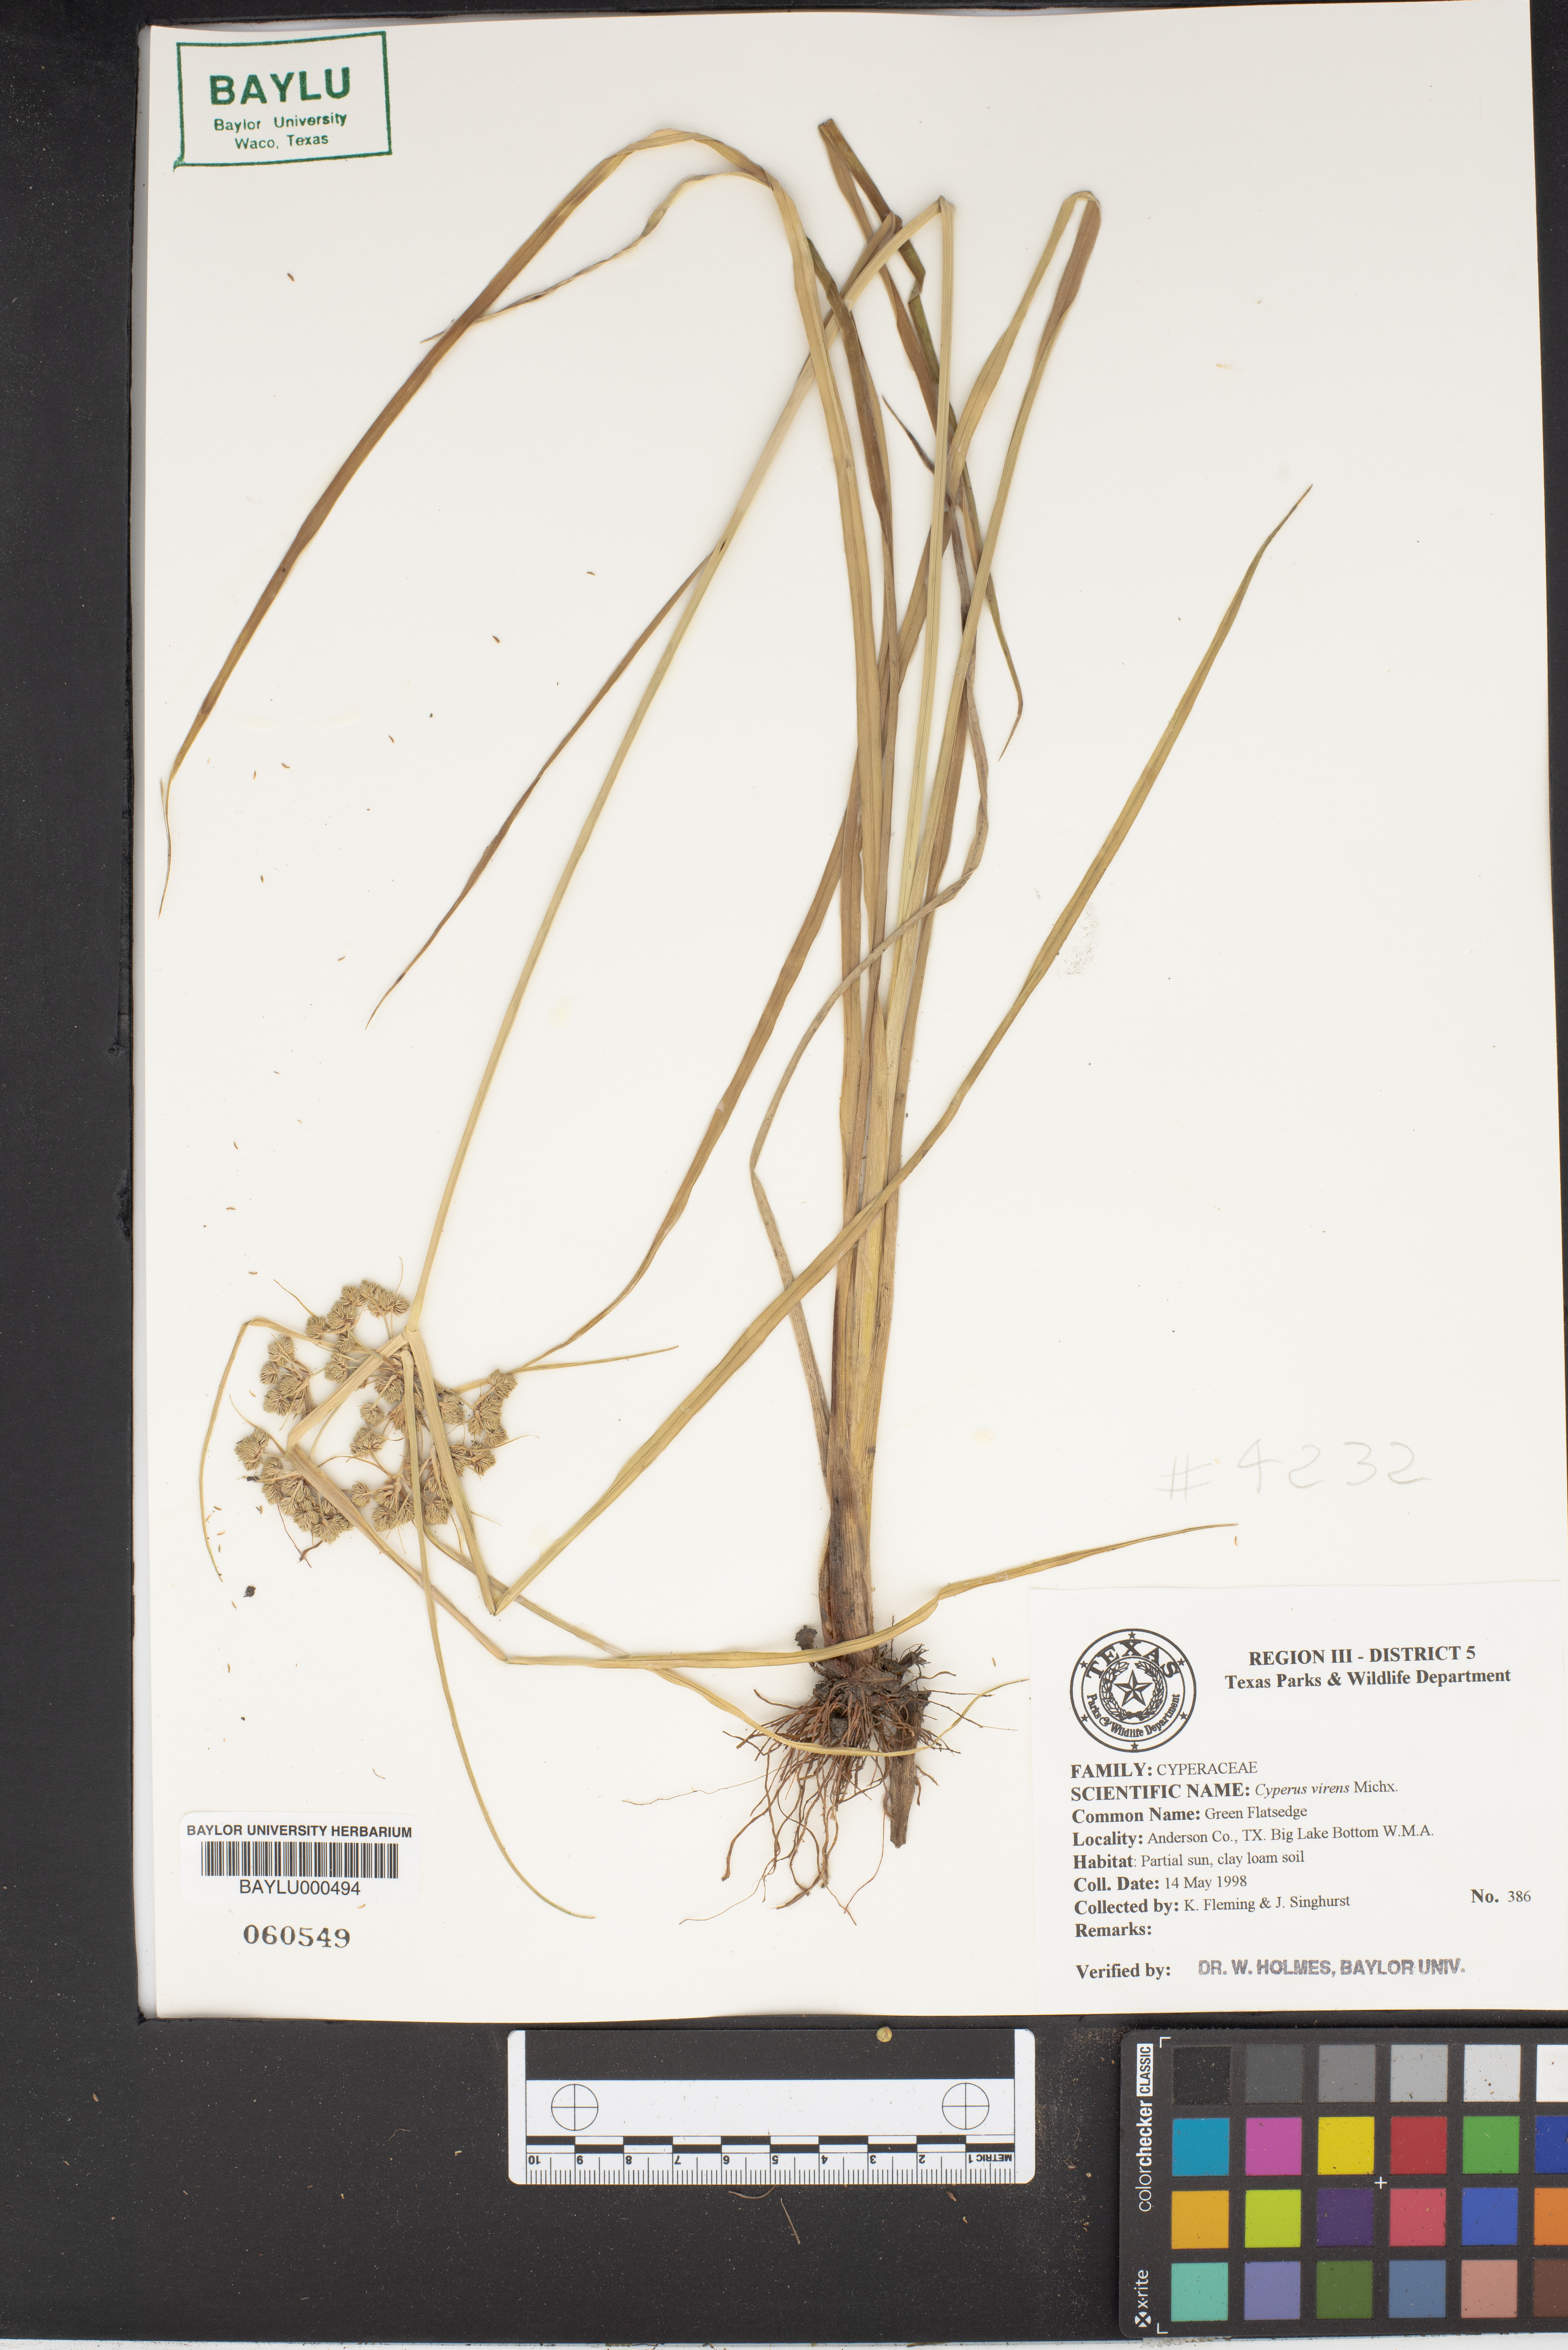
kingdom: Plantae
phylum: Tracheophyta
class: Liliopsida
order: Poales
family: Cyperaceae
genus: Cyperus
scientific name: Cyperus virens
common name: Green flatsedge
